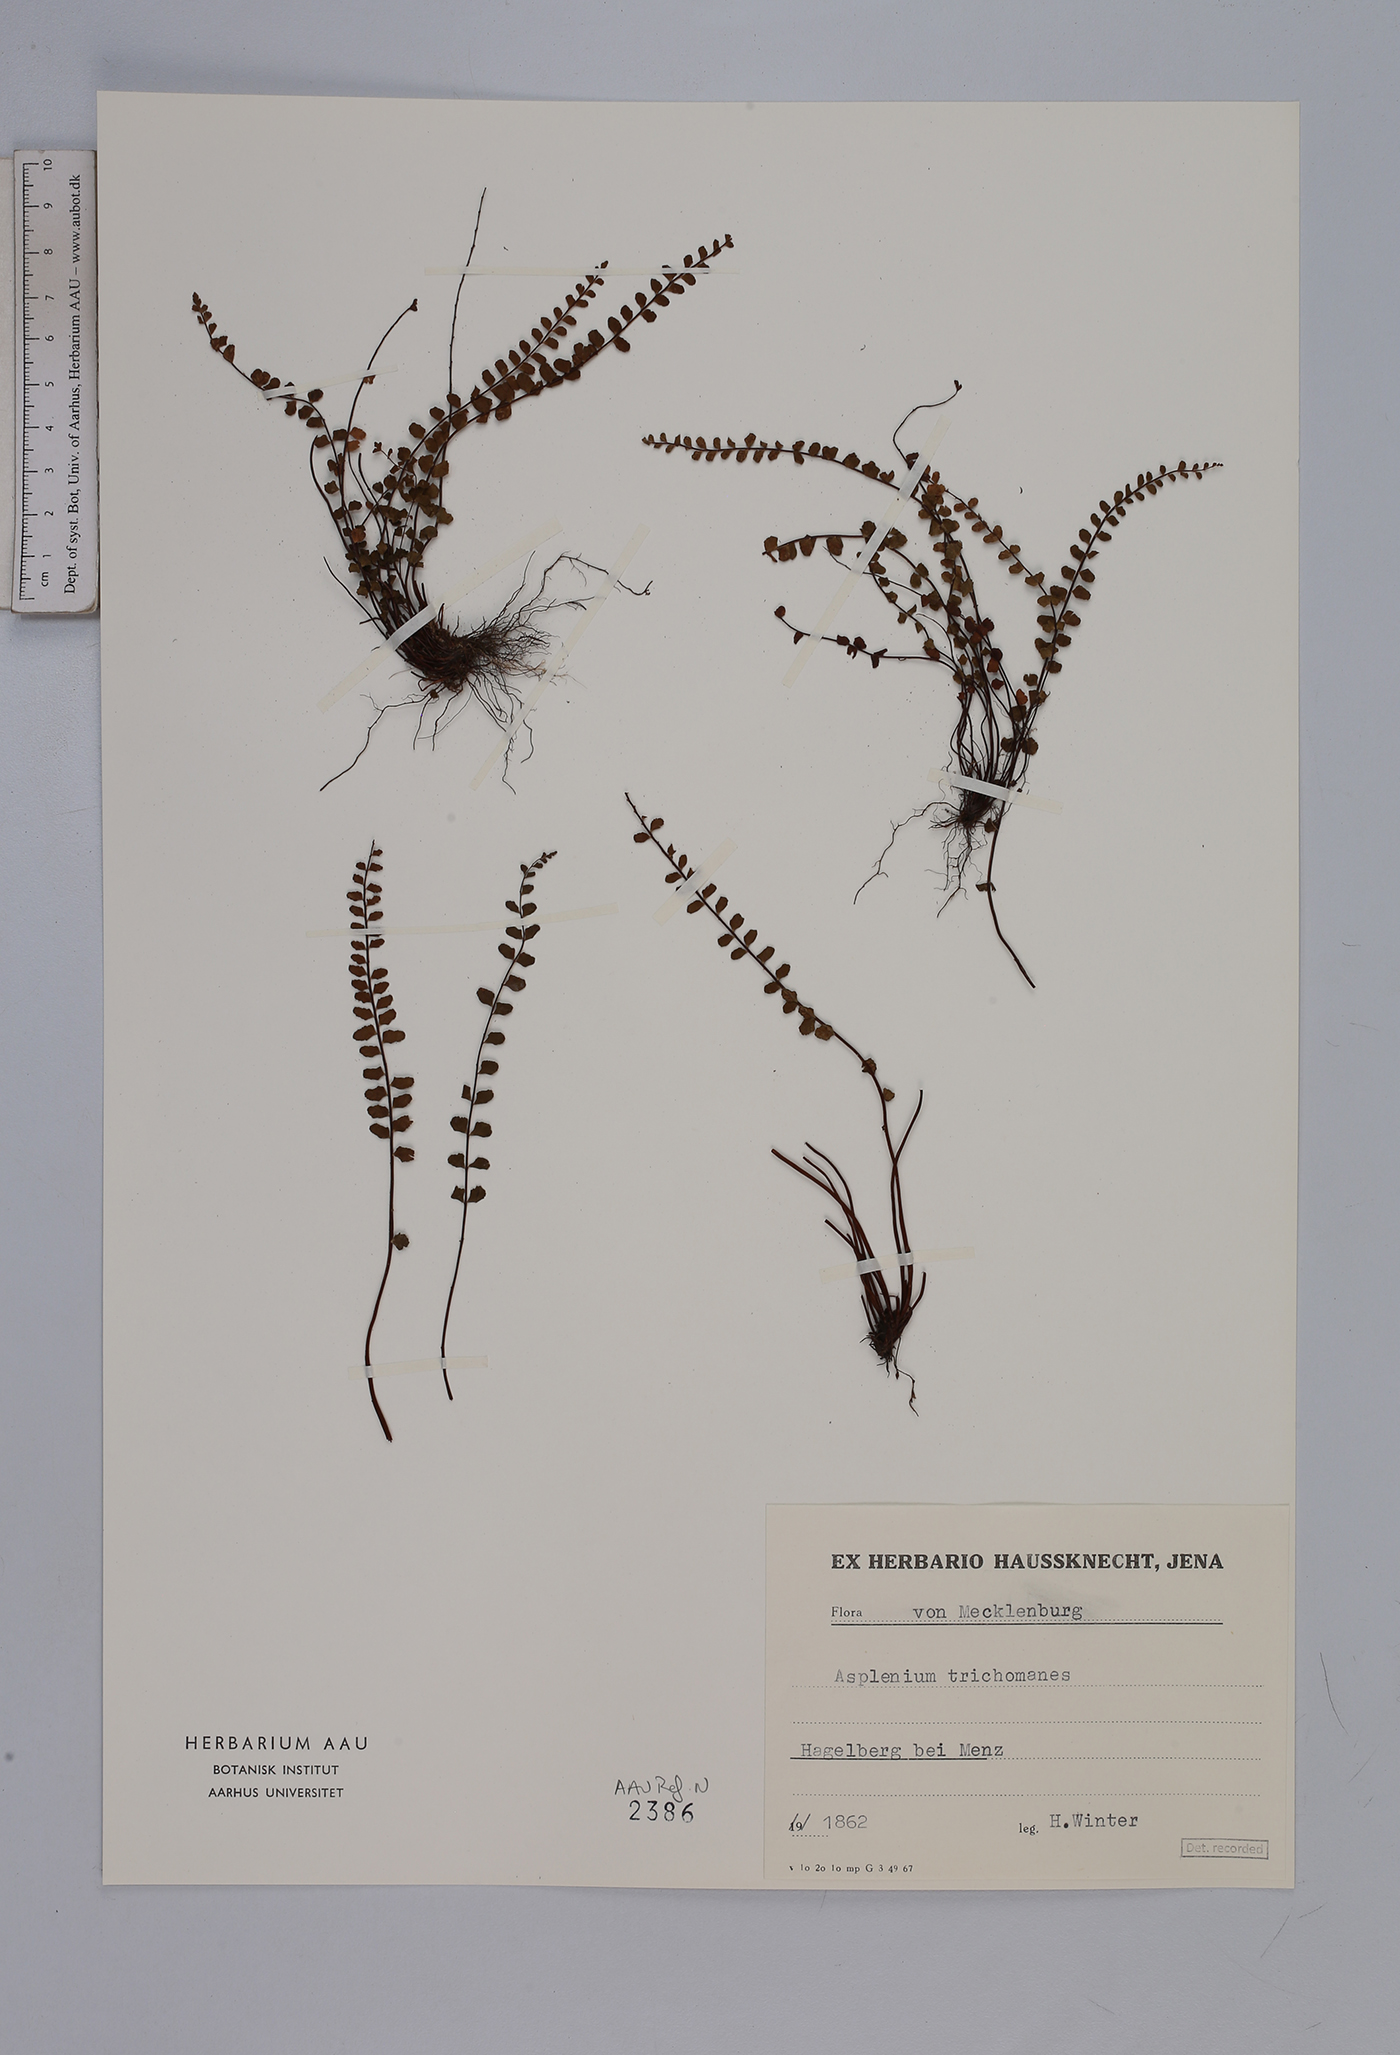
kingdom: Plantae
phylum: Tracheophyta
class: Polypodiopsida
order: Polypodiales
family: Aspleniaceae
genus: Asplenium
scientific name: Asplenium trichomanes
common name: Maidenhair spleenwort
